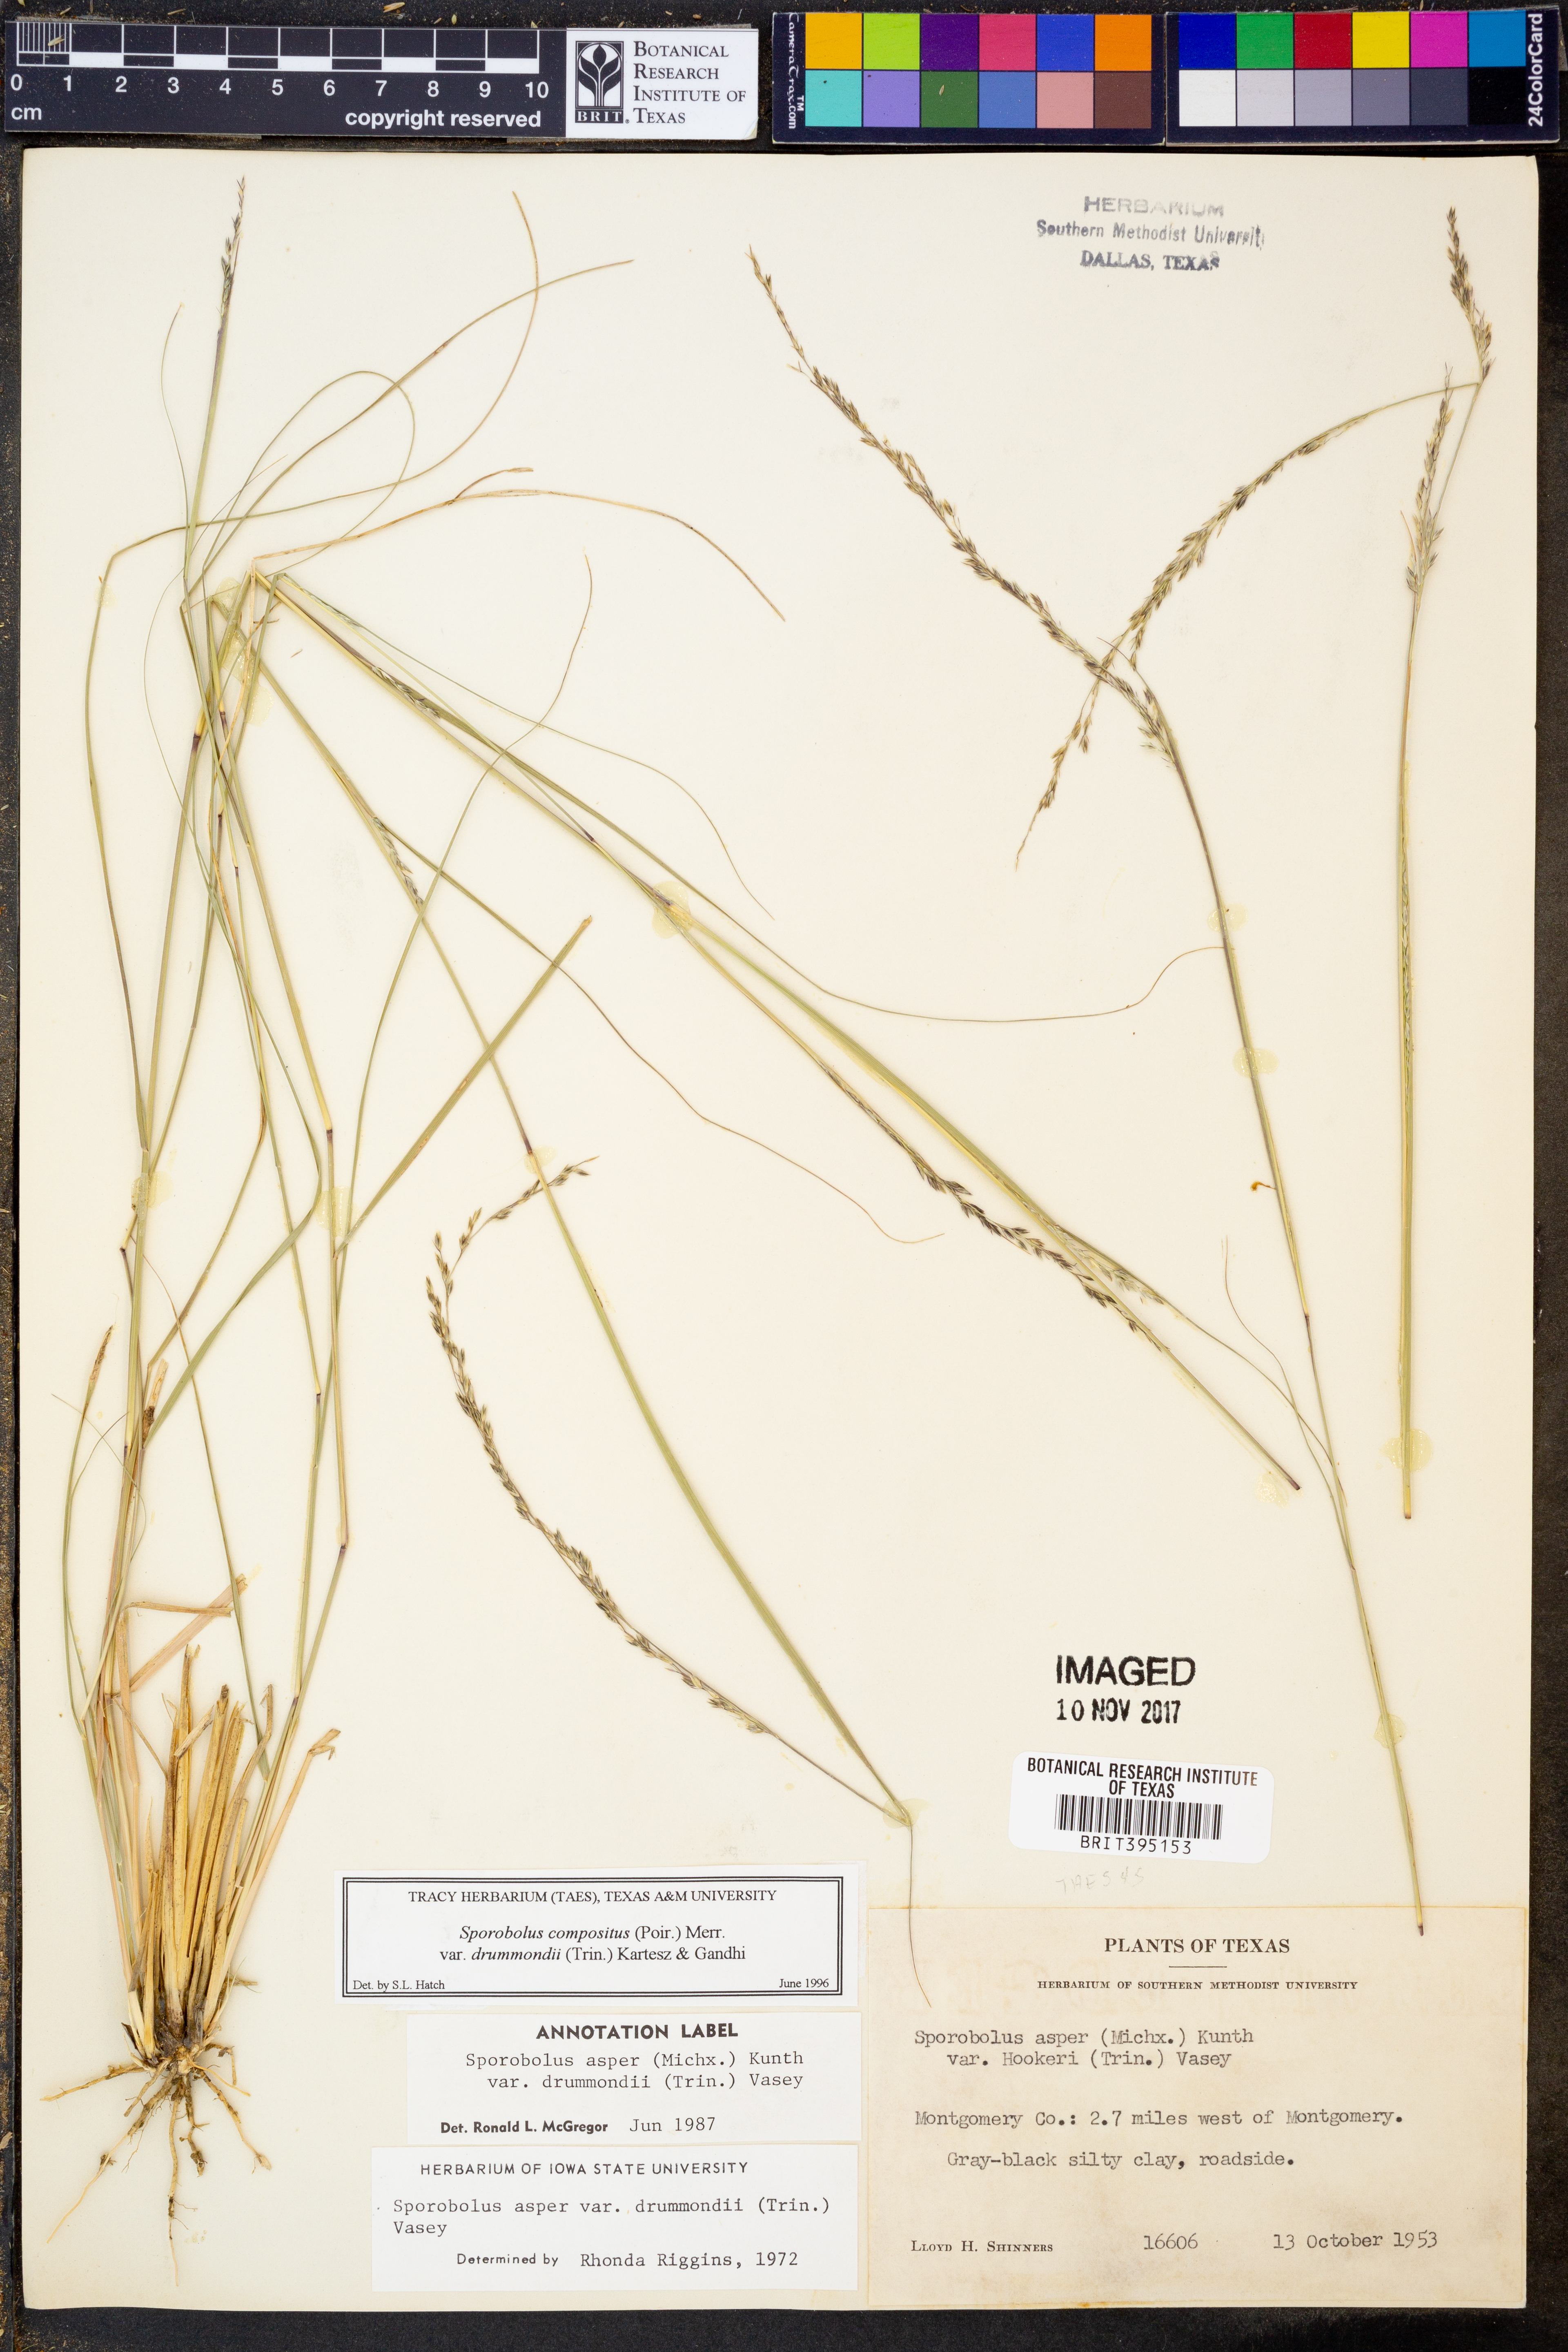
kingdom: Plantae
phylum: Tracheophyta
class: Liliopsida
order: Poales
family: Poaceae
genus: Sporobolus
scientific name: Sporobolus compositus
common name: Rough dropseed
